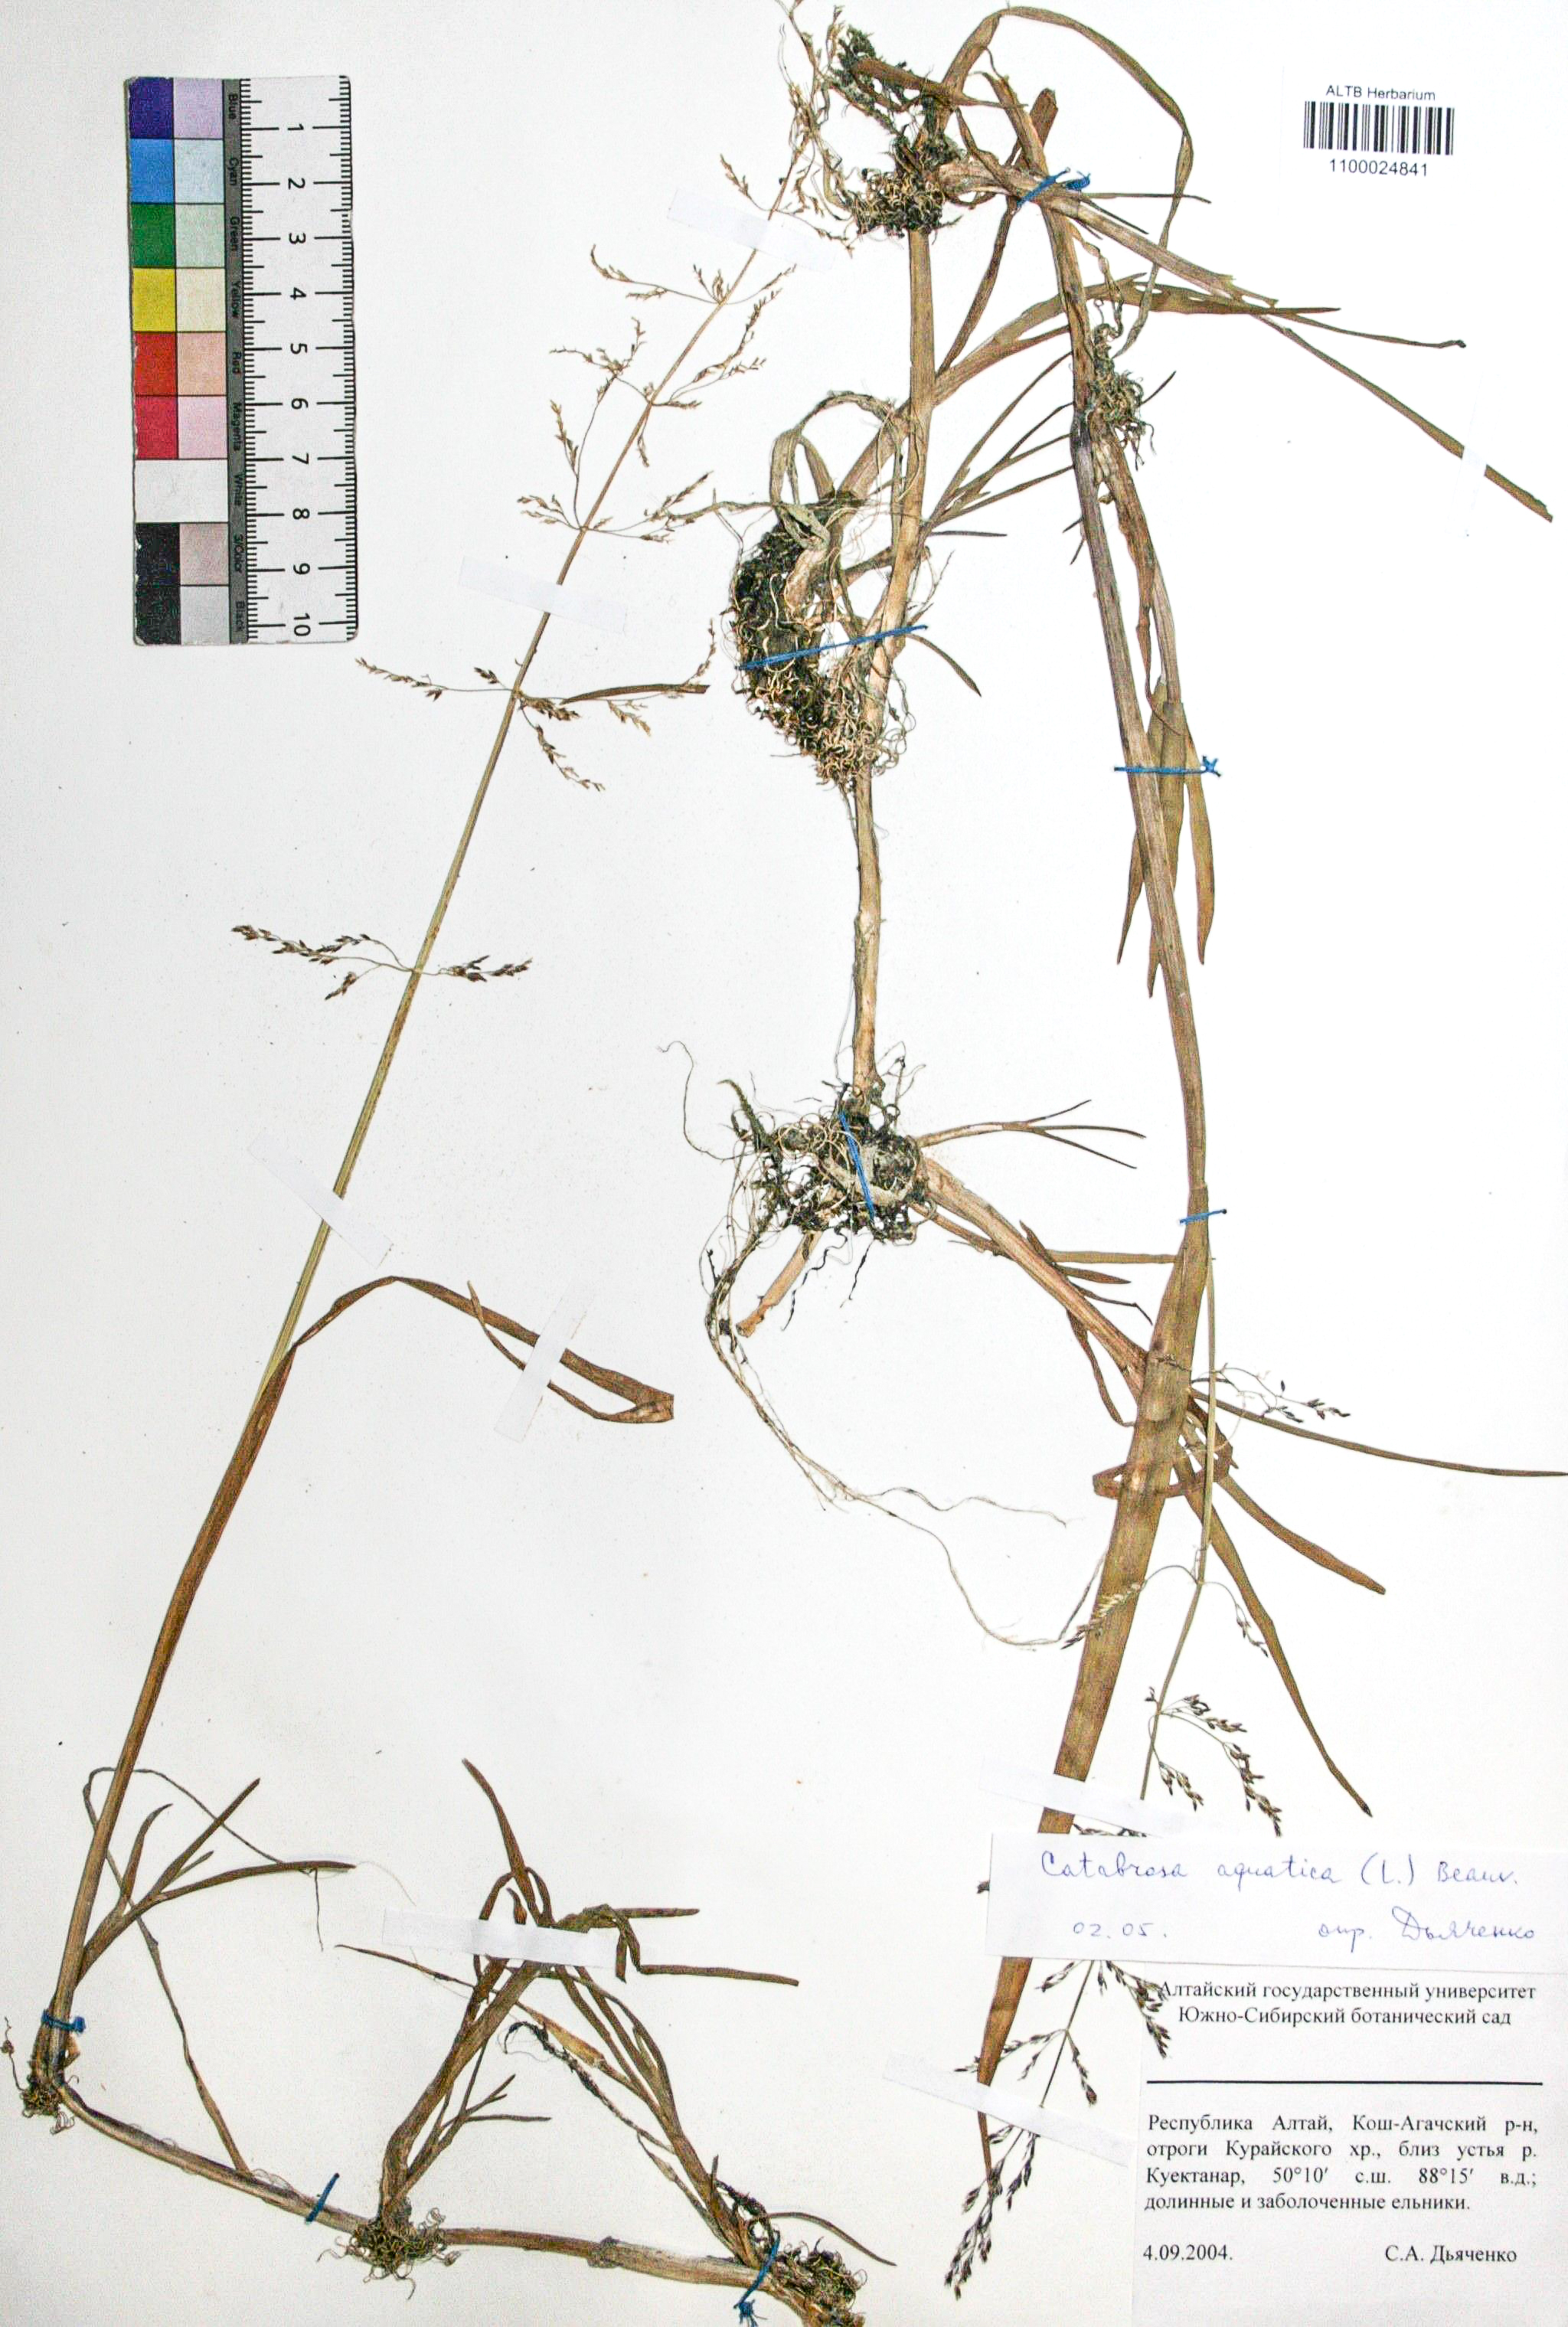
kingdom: Plantae
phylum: Tracheophyta
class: Liliopsida
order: Poales
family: Poaceae
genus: Catabrosa
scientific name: Catabrosa drakensbergensis
